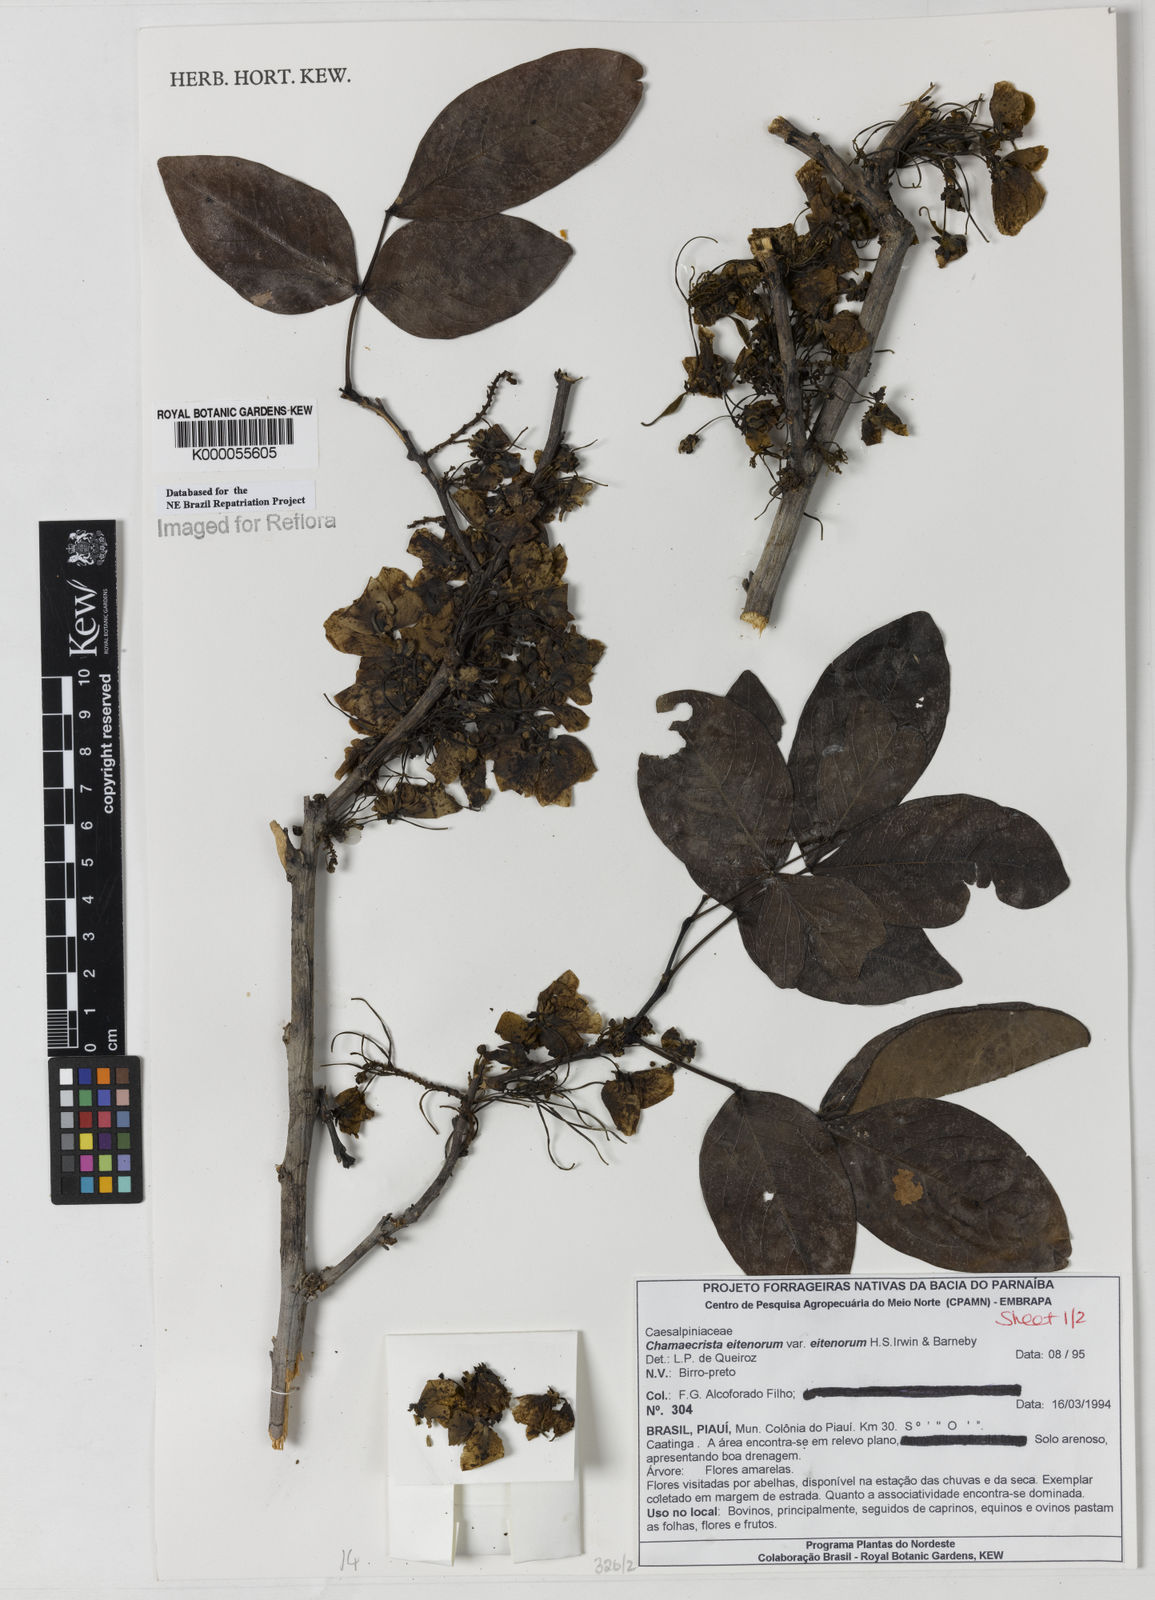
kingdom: Plantae
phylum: Tracheophyta
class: Magnoliopsida
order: Fabales
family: Fabaceae
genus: Chamaecrista
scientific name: Chamaecrista eitenorum
